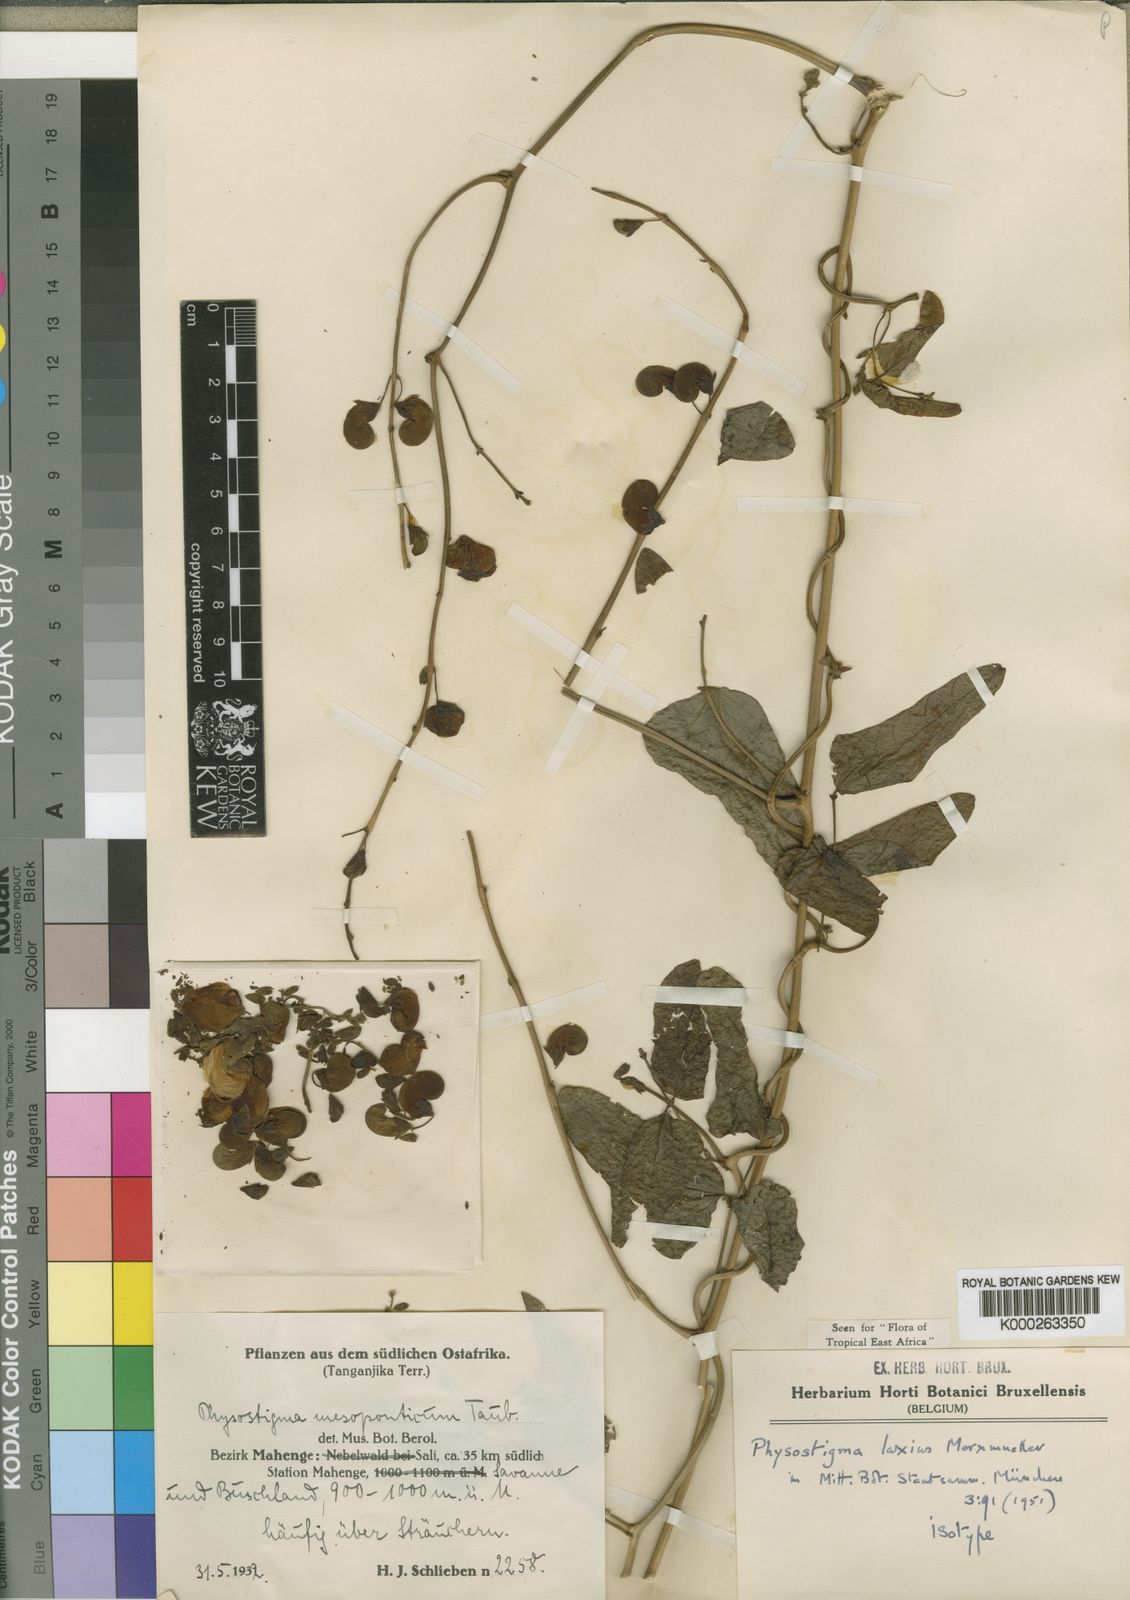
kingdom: Plantae
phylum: Tracheophyta
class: Magnoliopsida
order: Fabales
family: Fabaceae
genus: Physostigma
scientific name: Physostigma laxius
